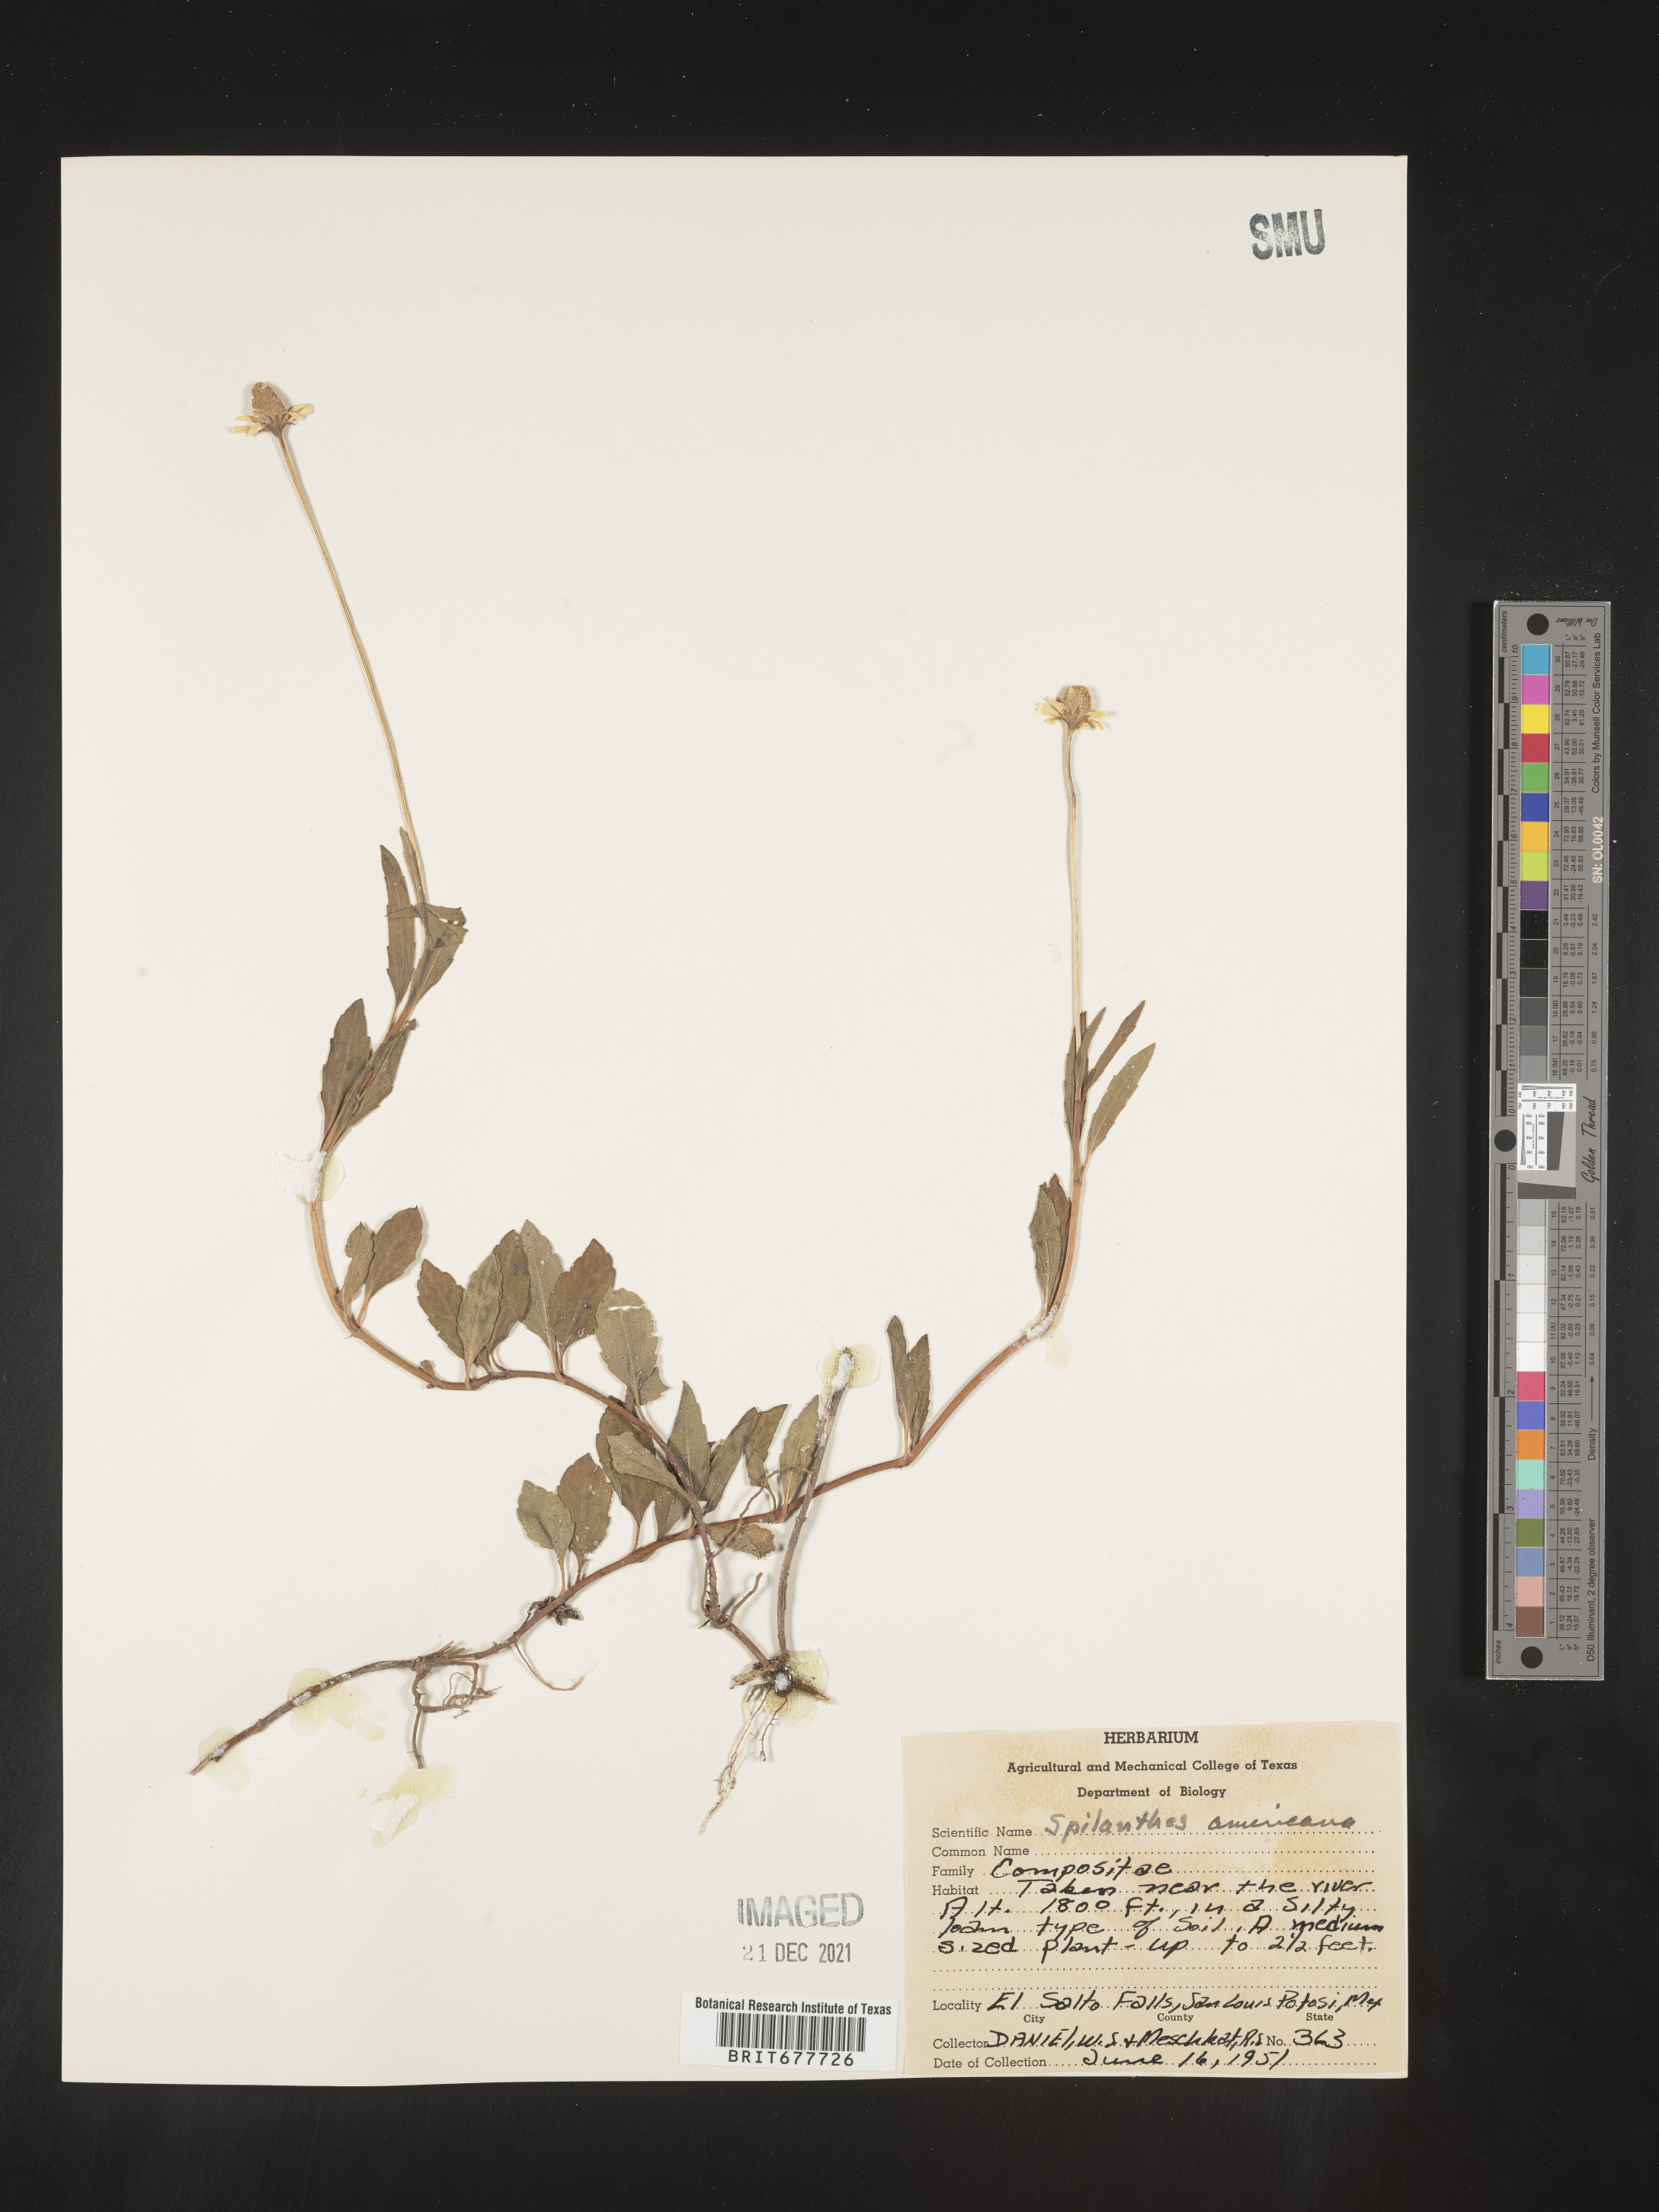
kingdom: Plantae
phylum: Tracheophyta
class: Magnoliopsida
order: Asterales
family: Asteraceae
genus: Spilanthes
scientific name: Spilanthes
